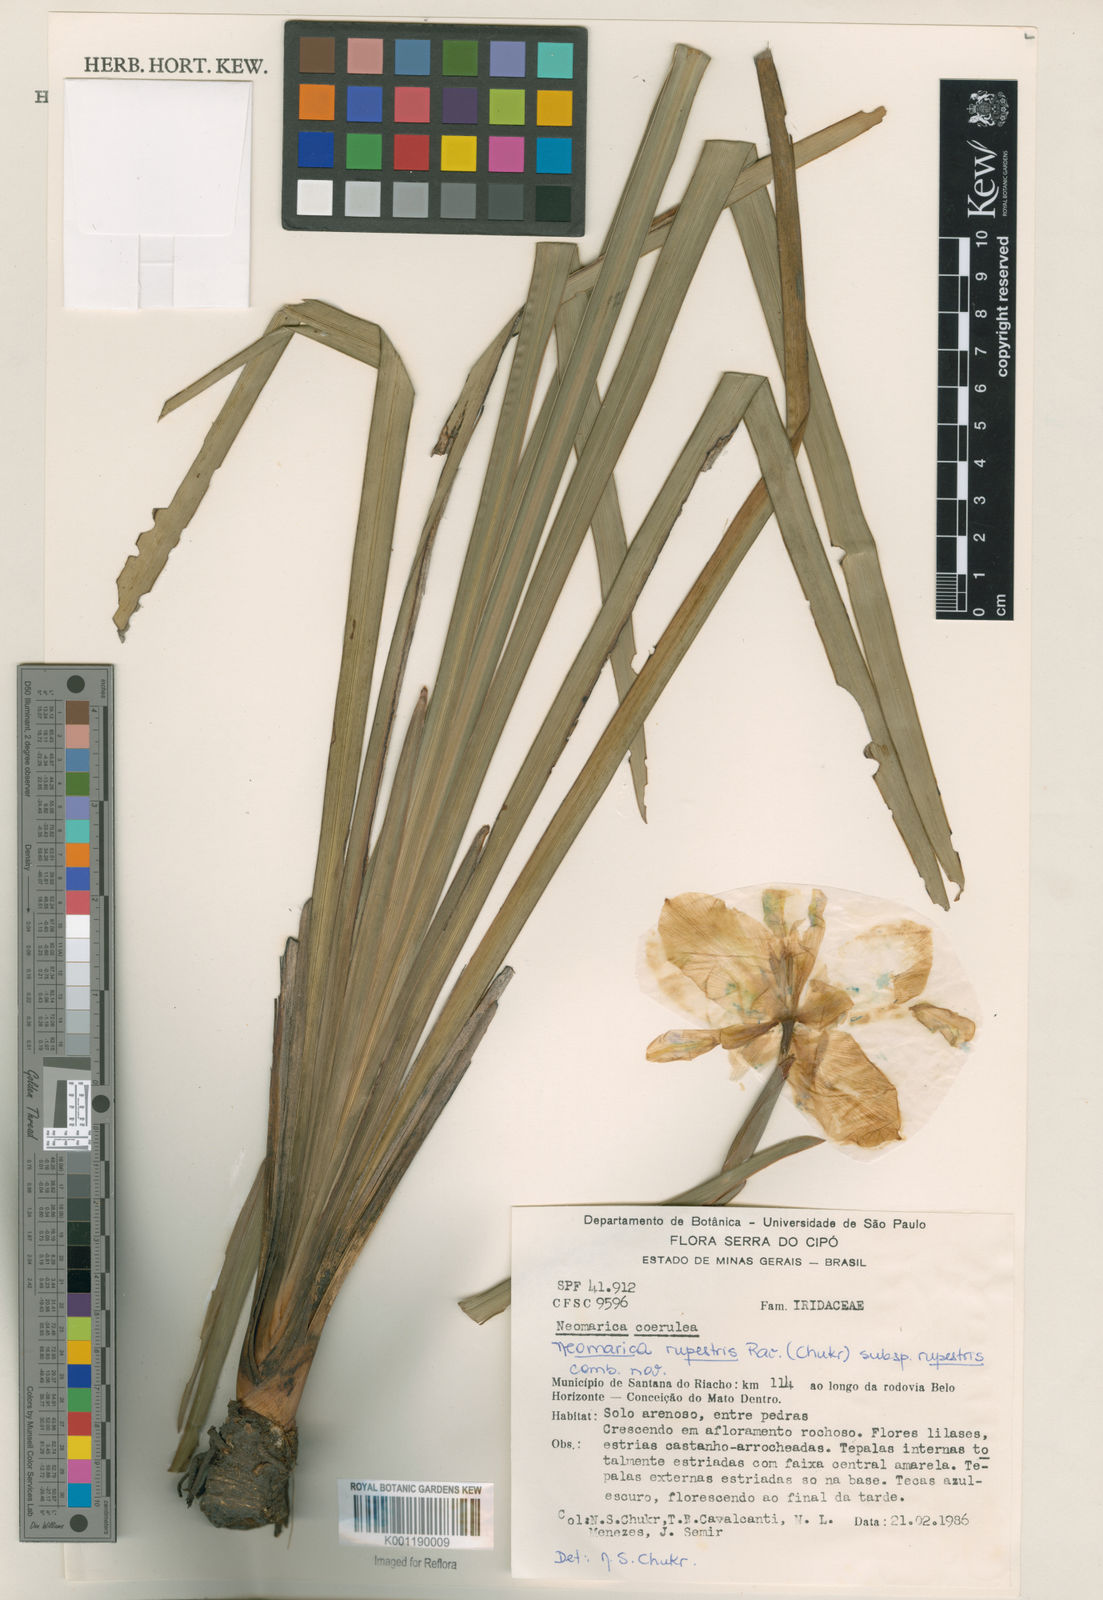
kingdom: Plantae
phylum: Tracheophyta
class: Liliopsida
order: Asparagales
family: Iridaceae
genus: Trimezia
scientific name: Trimezia rupestris
